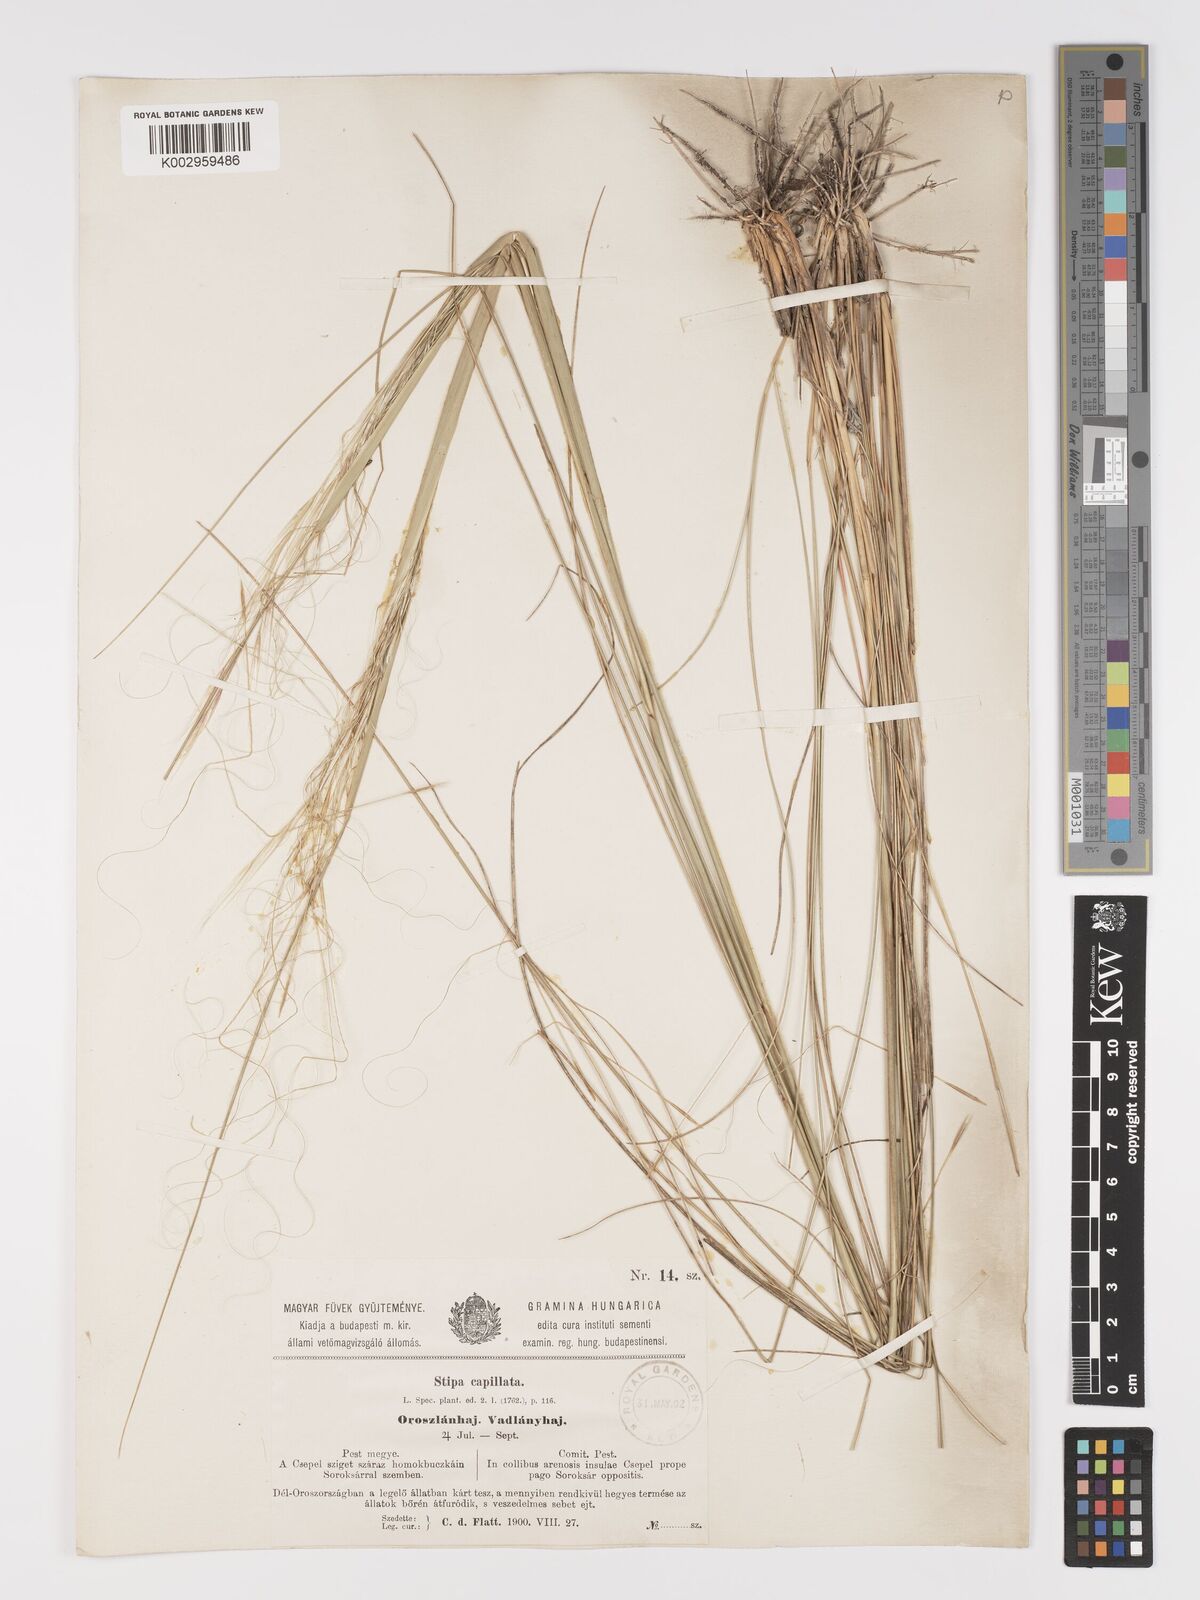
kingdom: Plantae
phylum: Tracheophyta
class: Liliopsida
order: Poales
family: Poaceae
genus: Stipa
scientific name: Stipa capillata
